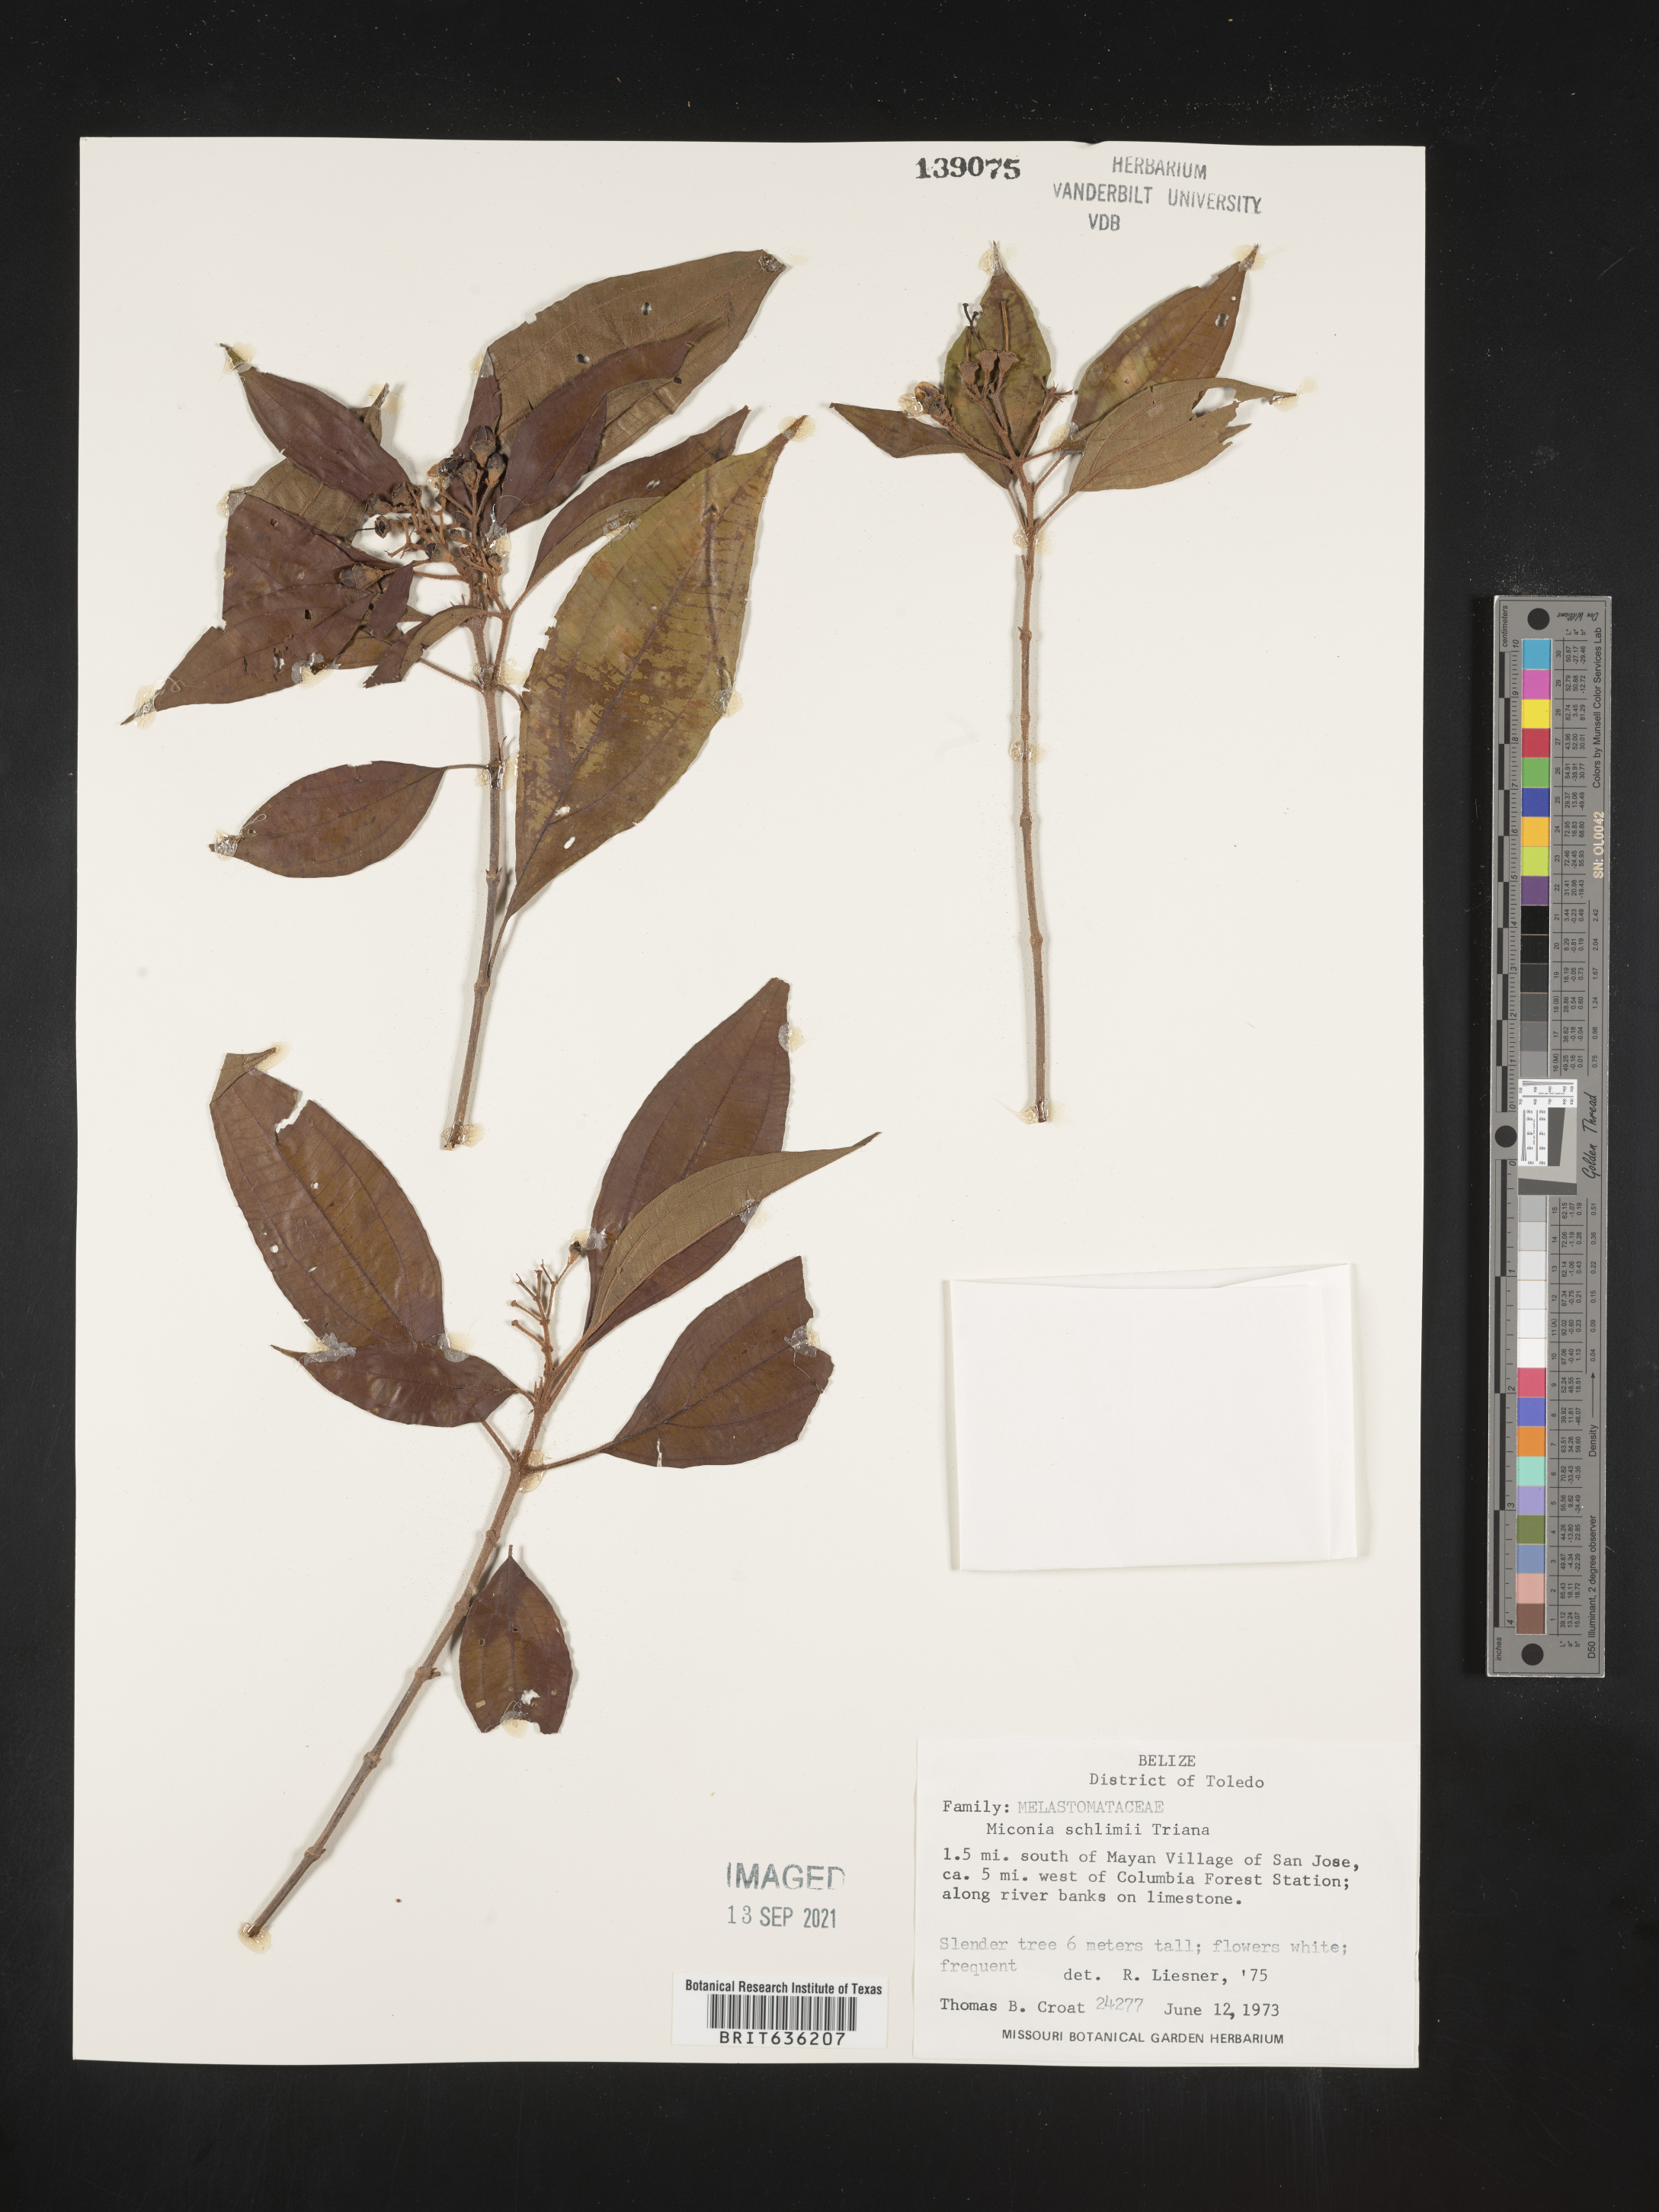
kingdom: Plantae
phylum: Tracheophyta
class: Magnoliopsida
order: Myrtales
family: Melastomataceae
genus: Miconia
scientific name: Miconia
